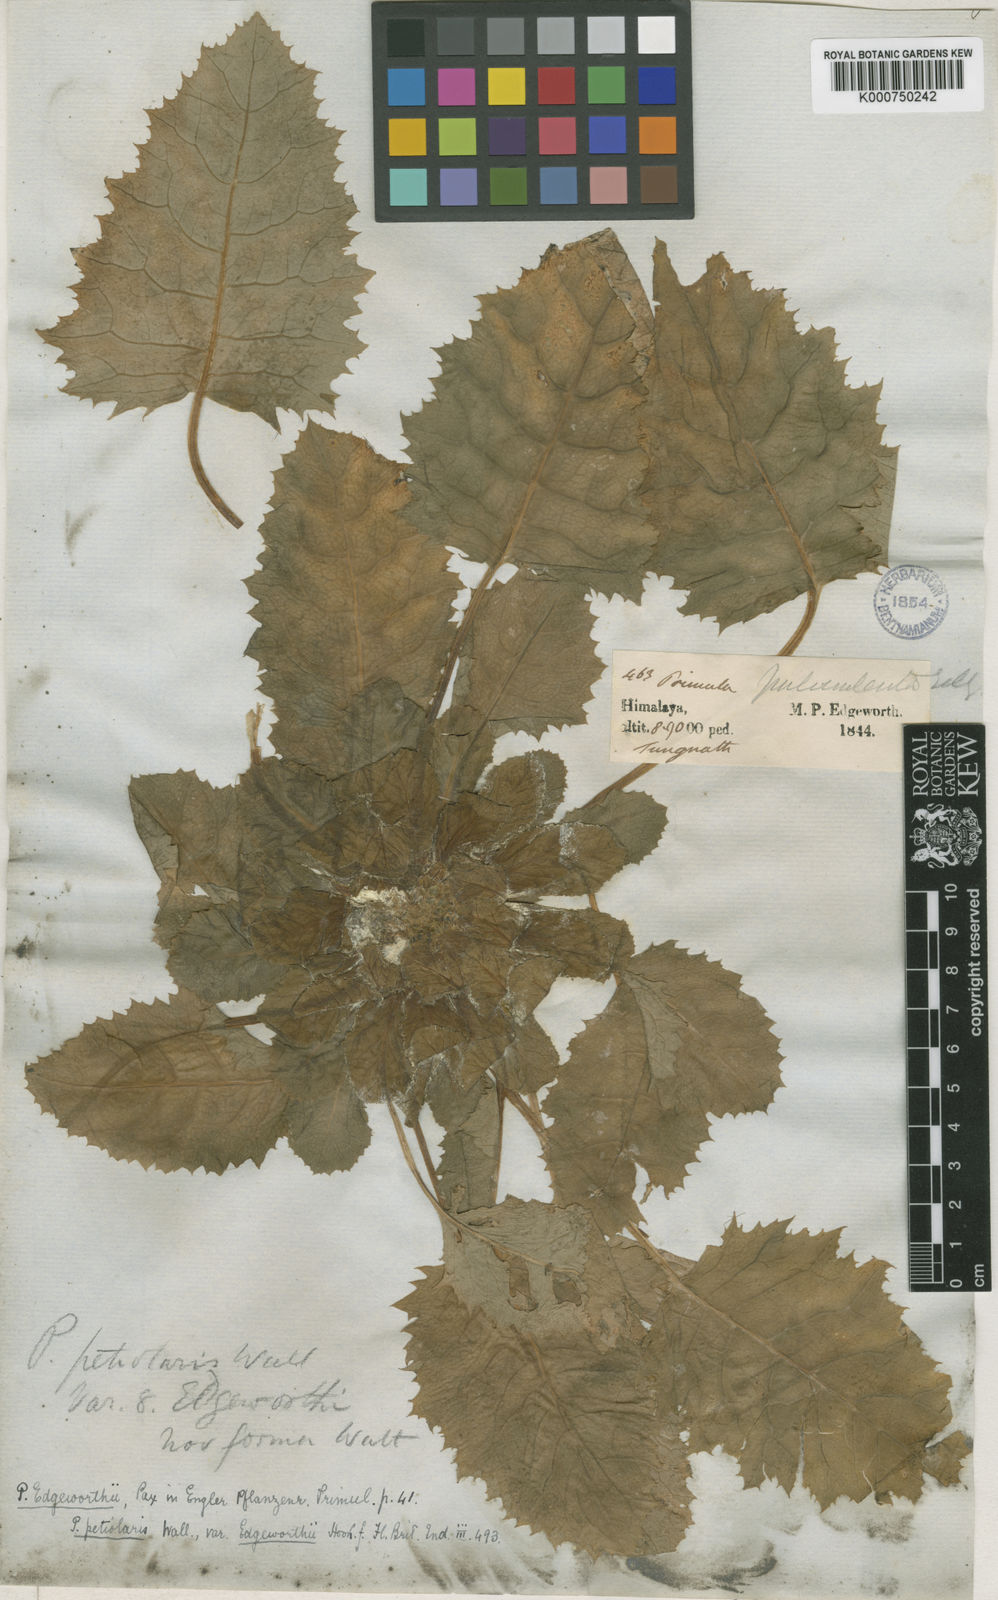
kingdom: Plantae
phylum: Tracheophyta
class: Magnoliopsida
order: Ericales
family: Primulaceae
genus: Primula
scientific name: Primula nana
